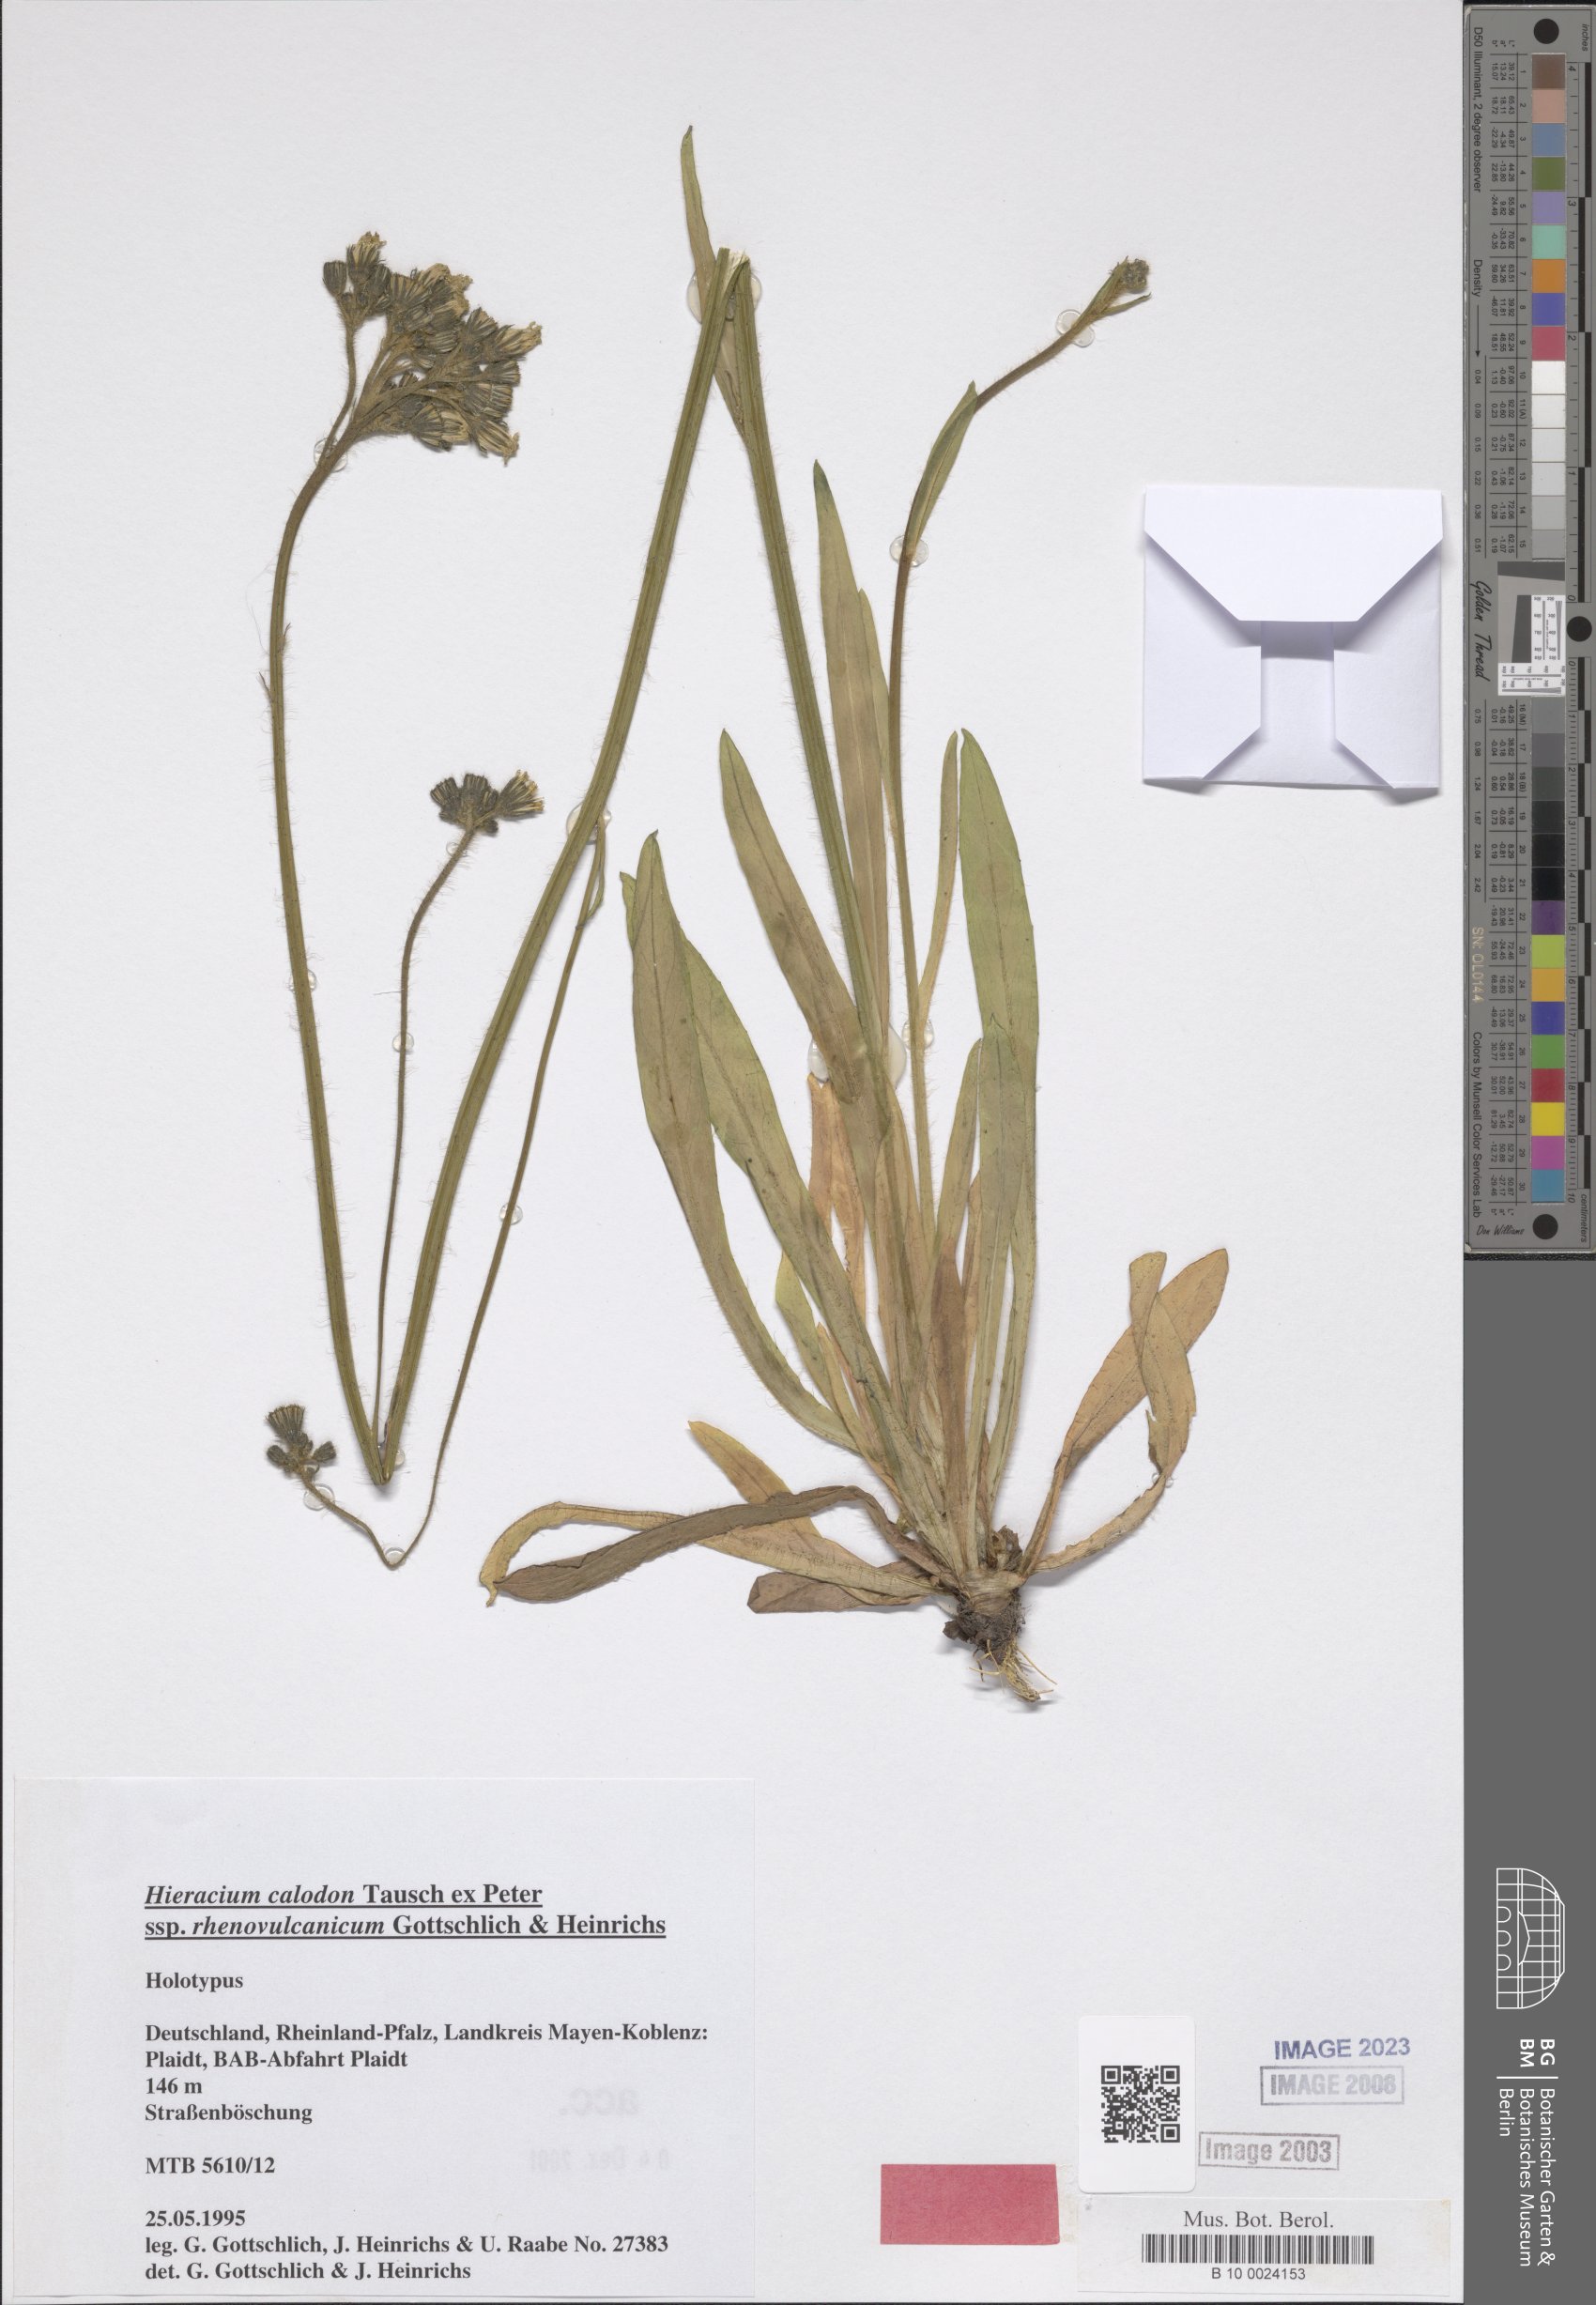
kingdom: Plantae
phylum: Tracheophyta
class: Magnoliopsida
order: Asterales
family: Asteraceae
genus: Pilosella
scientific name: Pilosella calodon
